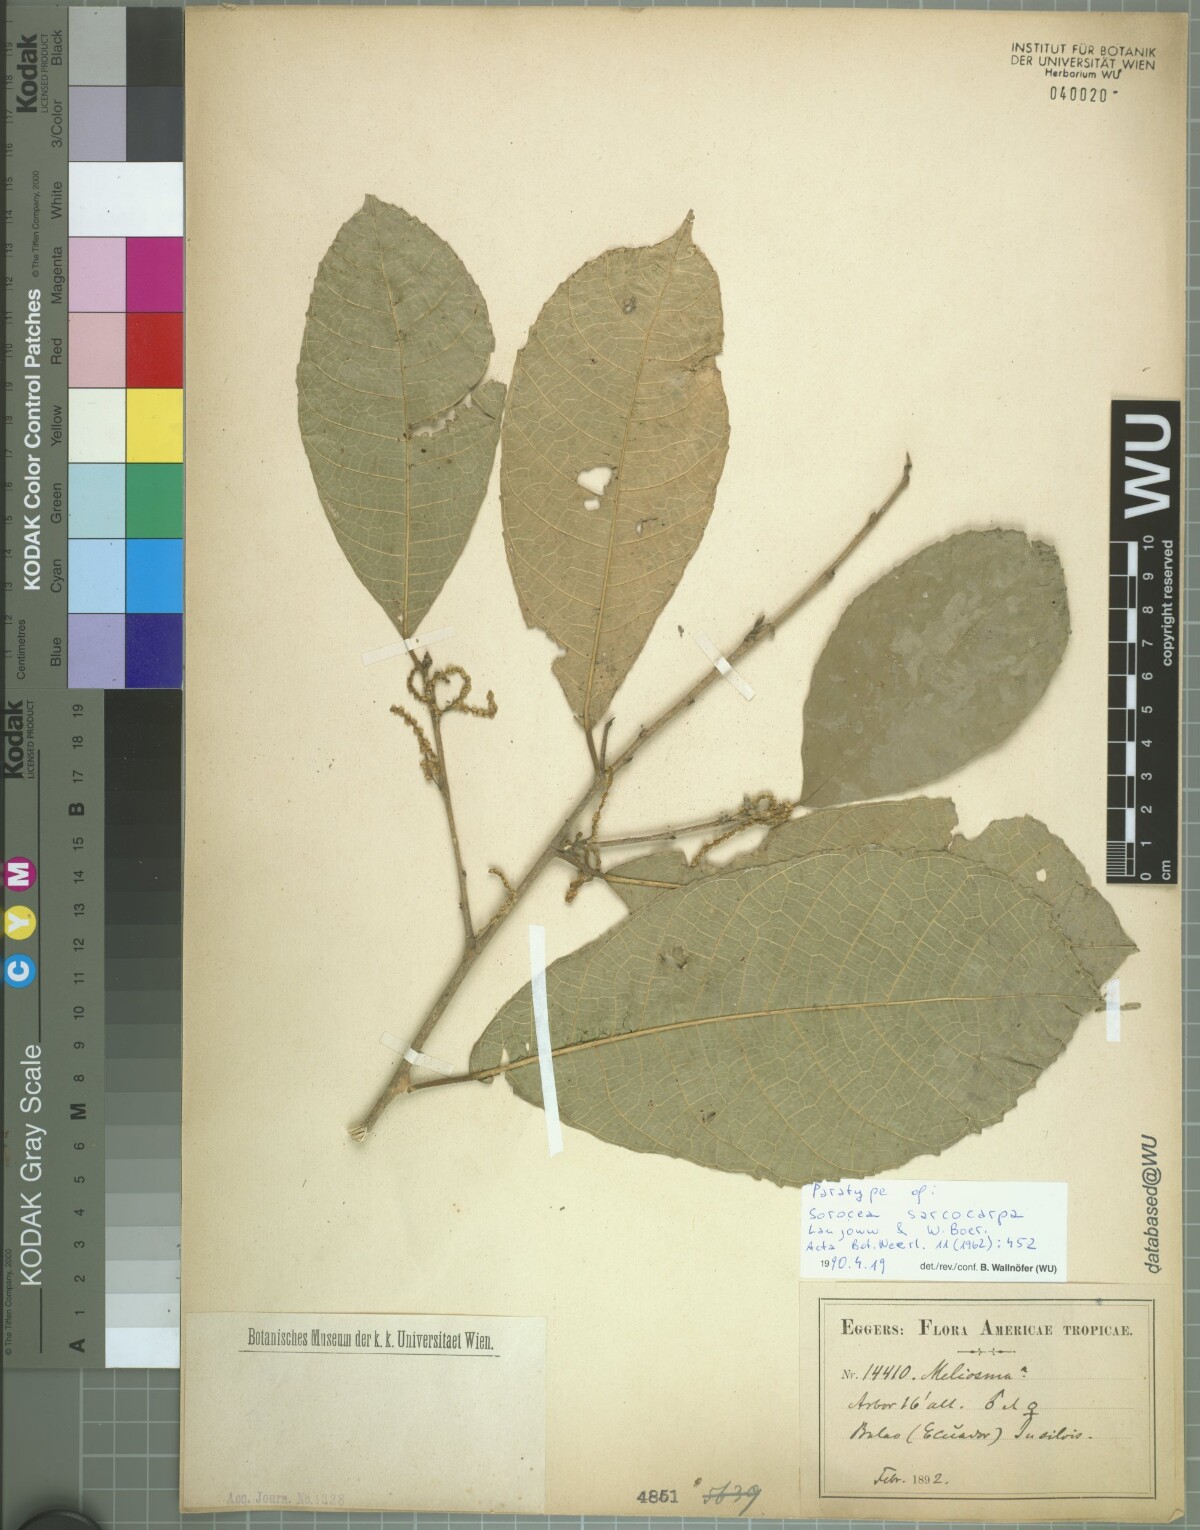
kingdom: Plantae
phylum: Tracheophyta
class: Magnoliopsida
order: Rosales
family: Moraceae
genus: Sorocea
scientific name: Sorocea sarcocarpa
